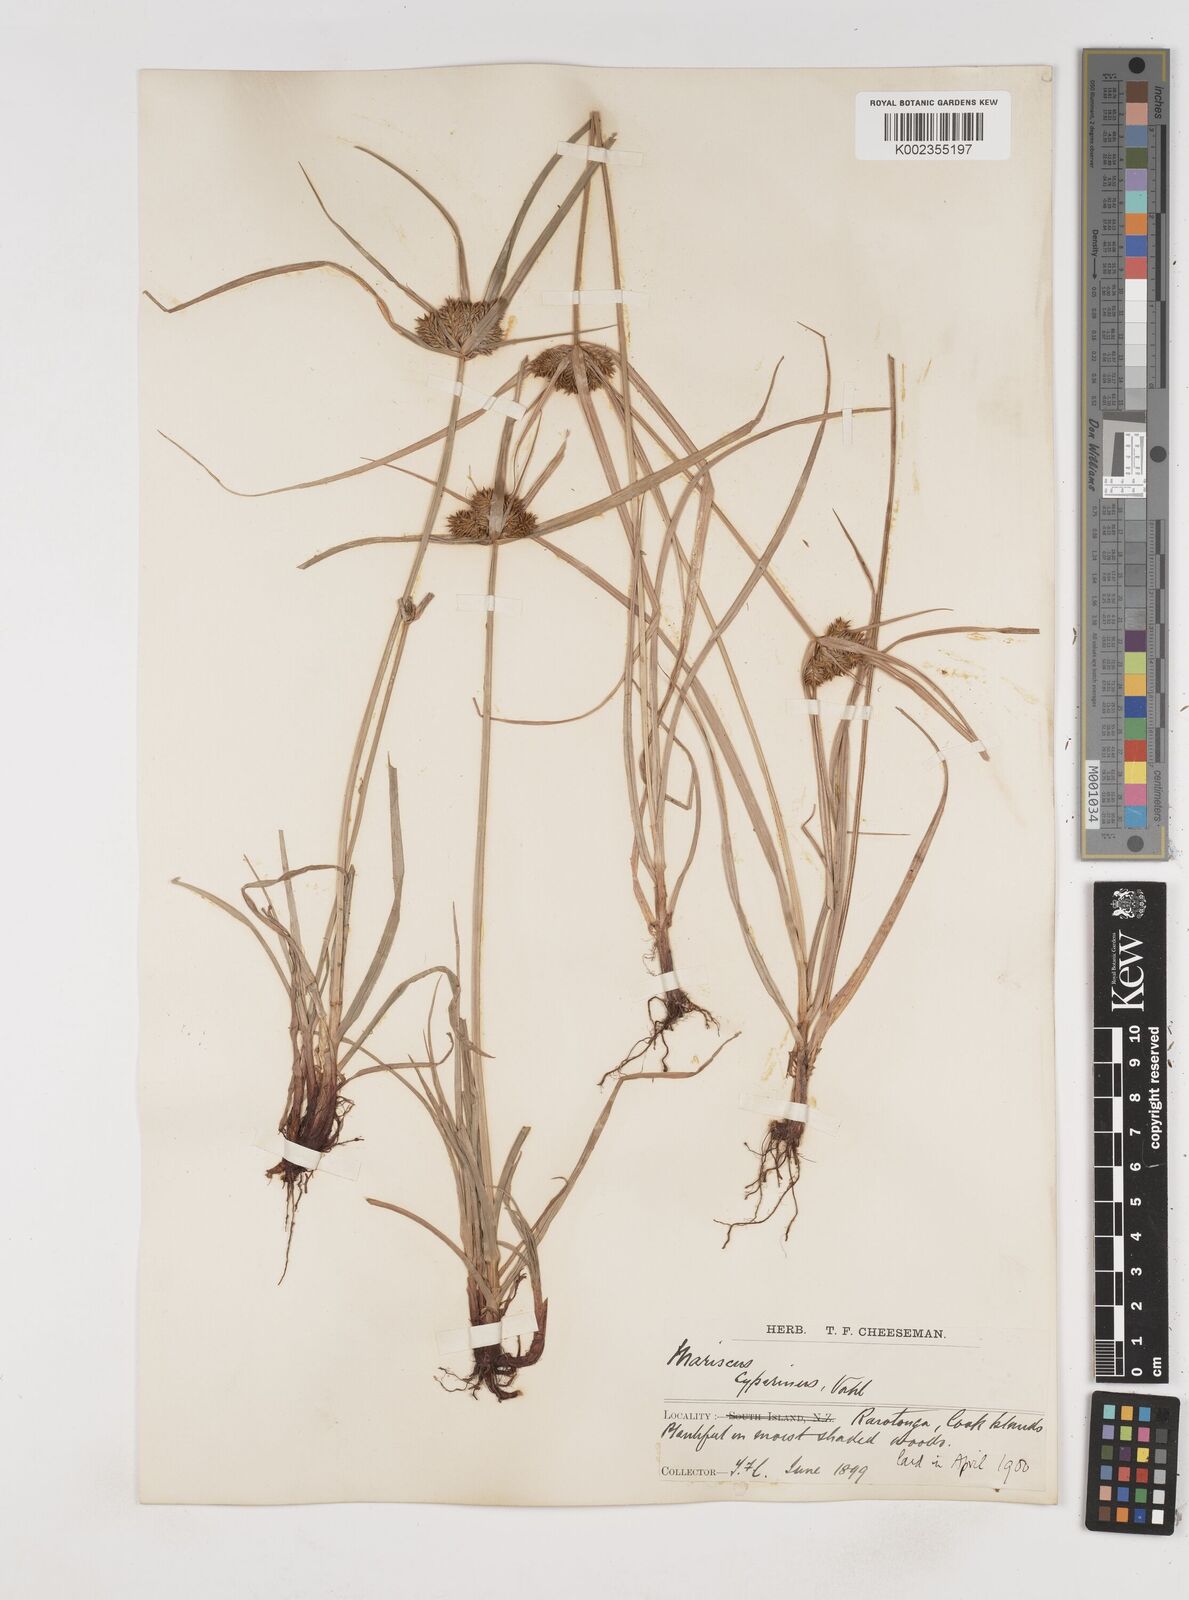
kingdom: Plantae
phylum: Tracheophyta
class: Liliopsida
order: Poales
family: Cyperaceae
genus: Cyperus
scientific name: Cyperus cyperinus
